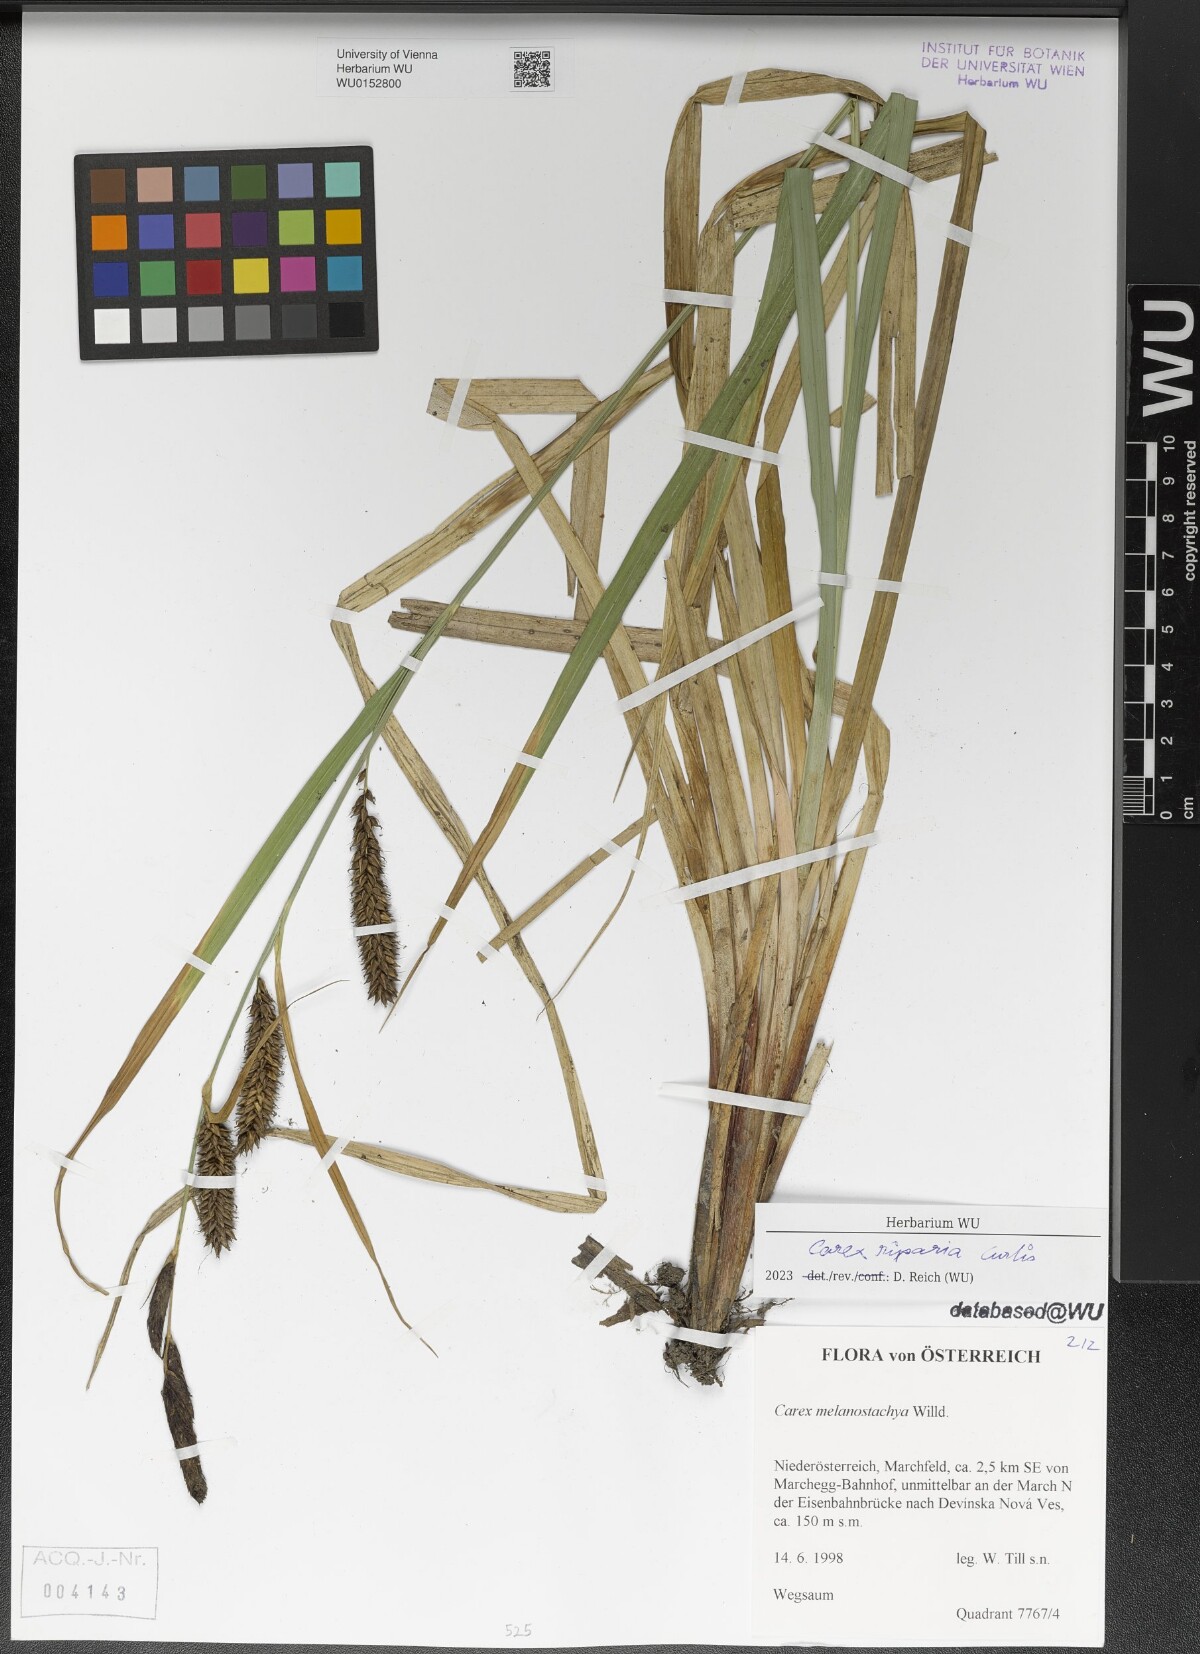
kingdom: Plantae
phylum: Tracheophyta
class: Liliopsida
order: Poales
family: Cyperaceae
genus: Carex
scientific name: Carex riparia
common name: Greater pond-sedge
